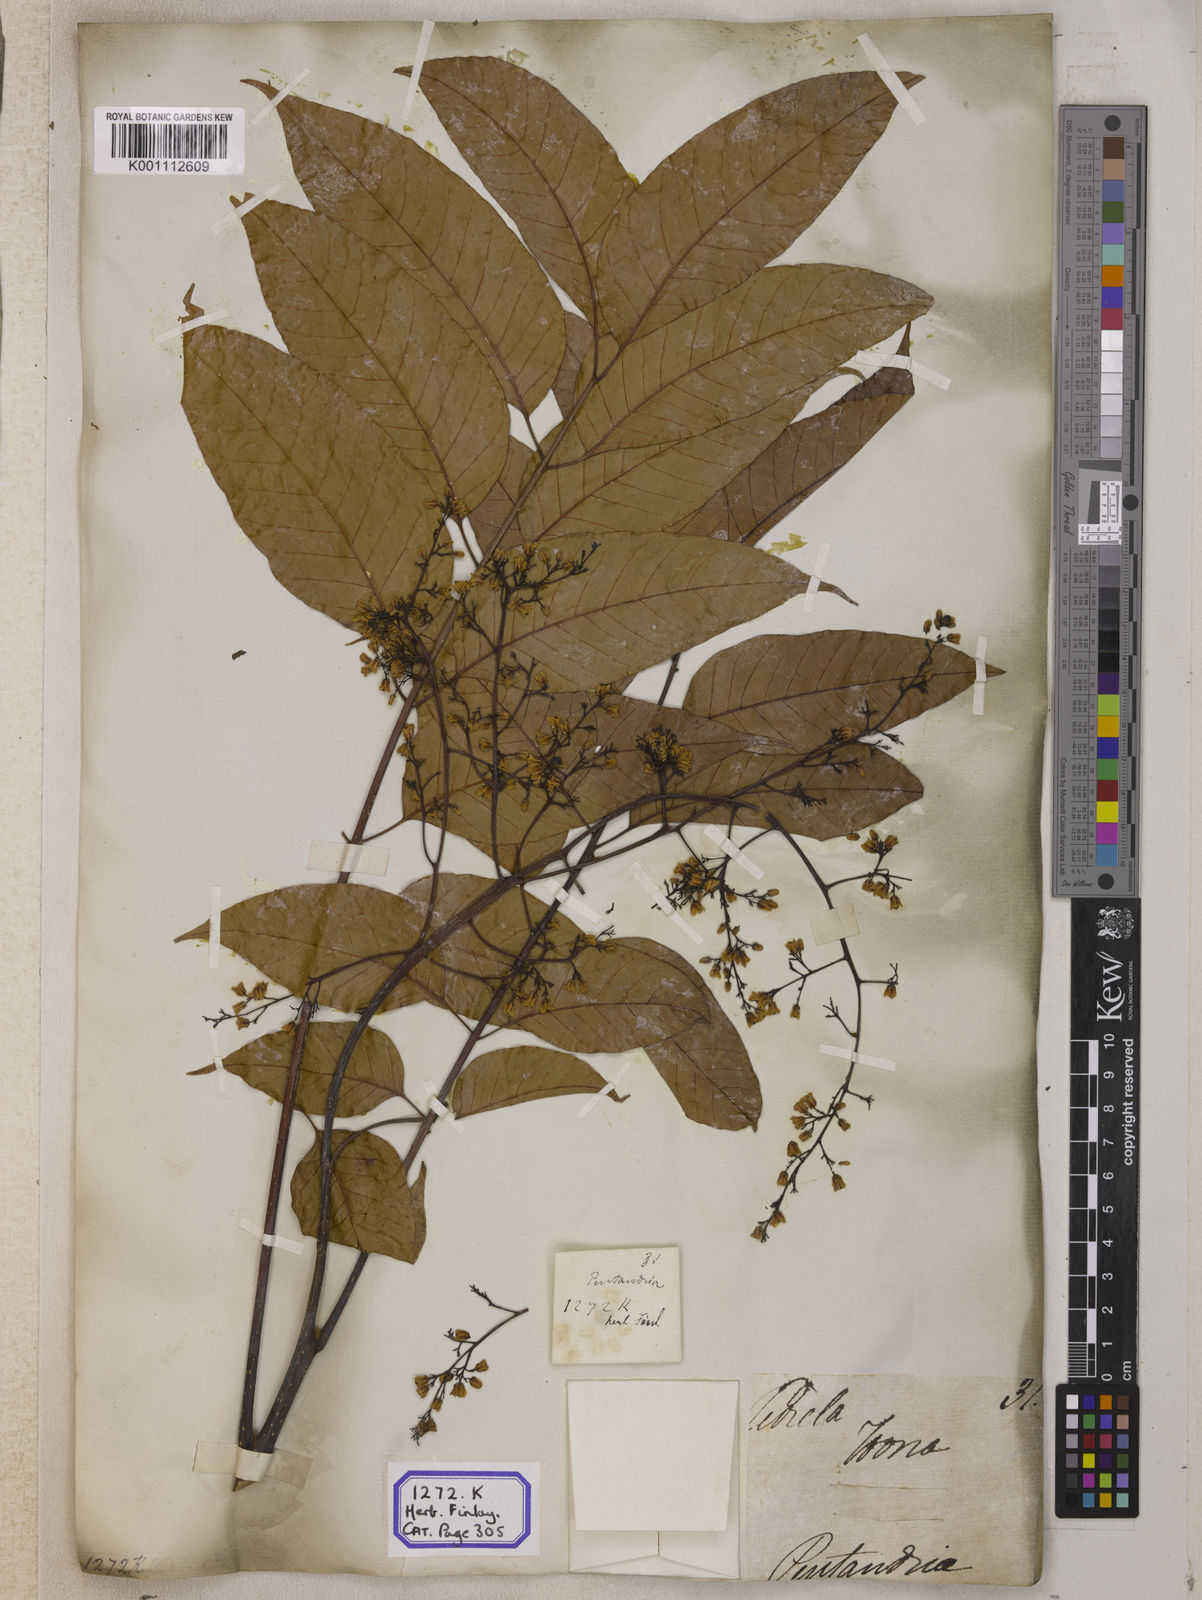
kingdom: Plantae
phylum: Tracheophyta
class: Magnoliopsida
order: Sapindales
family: Meliaceae
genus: Cedrela
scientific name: Cedrela
